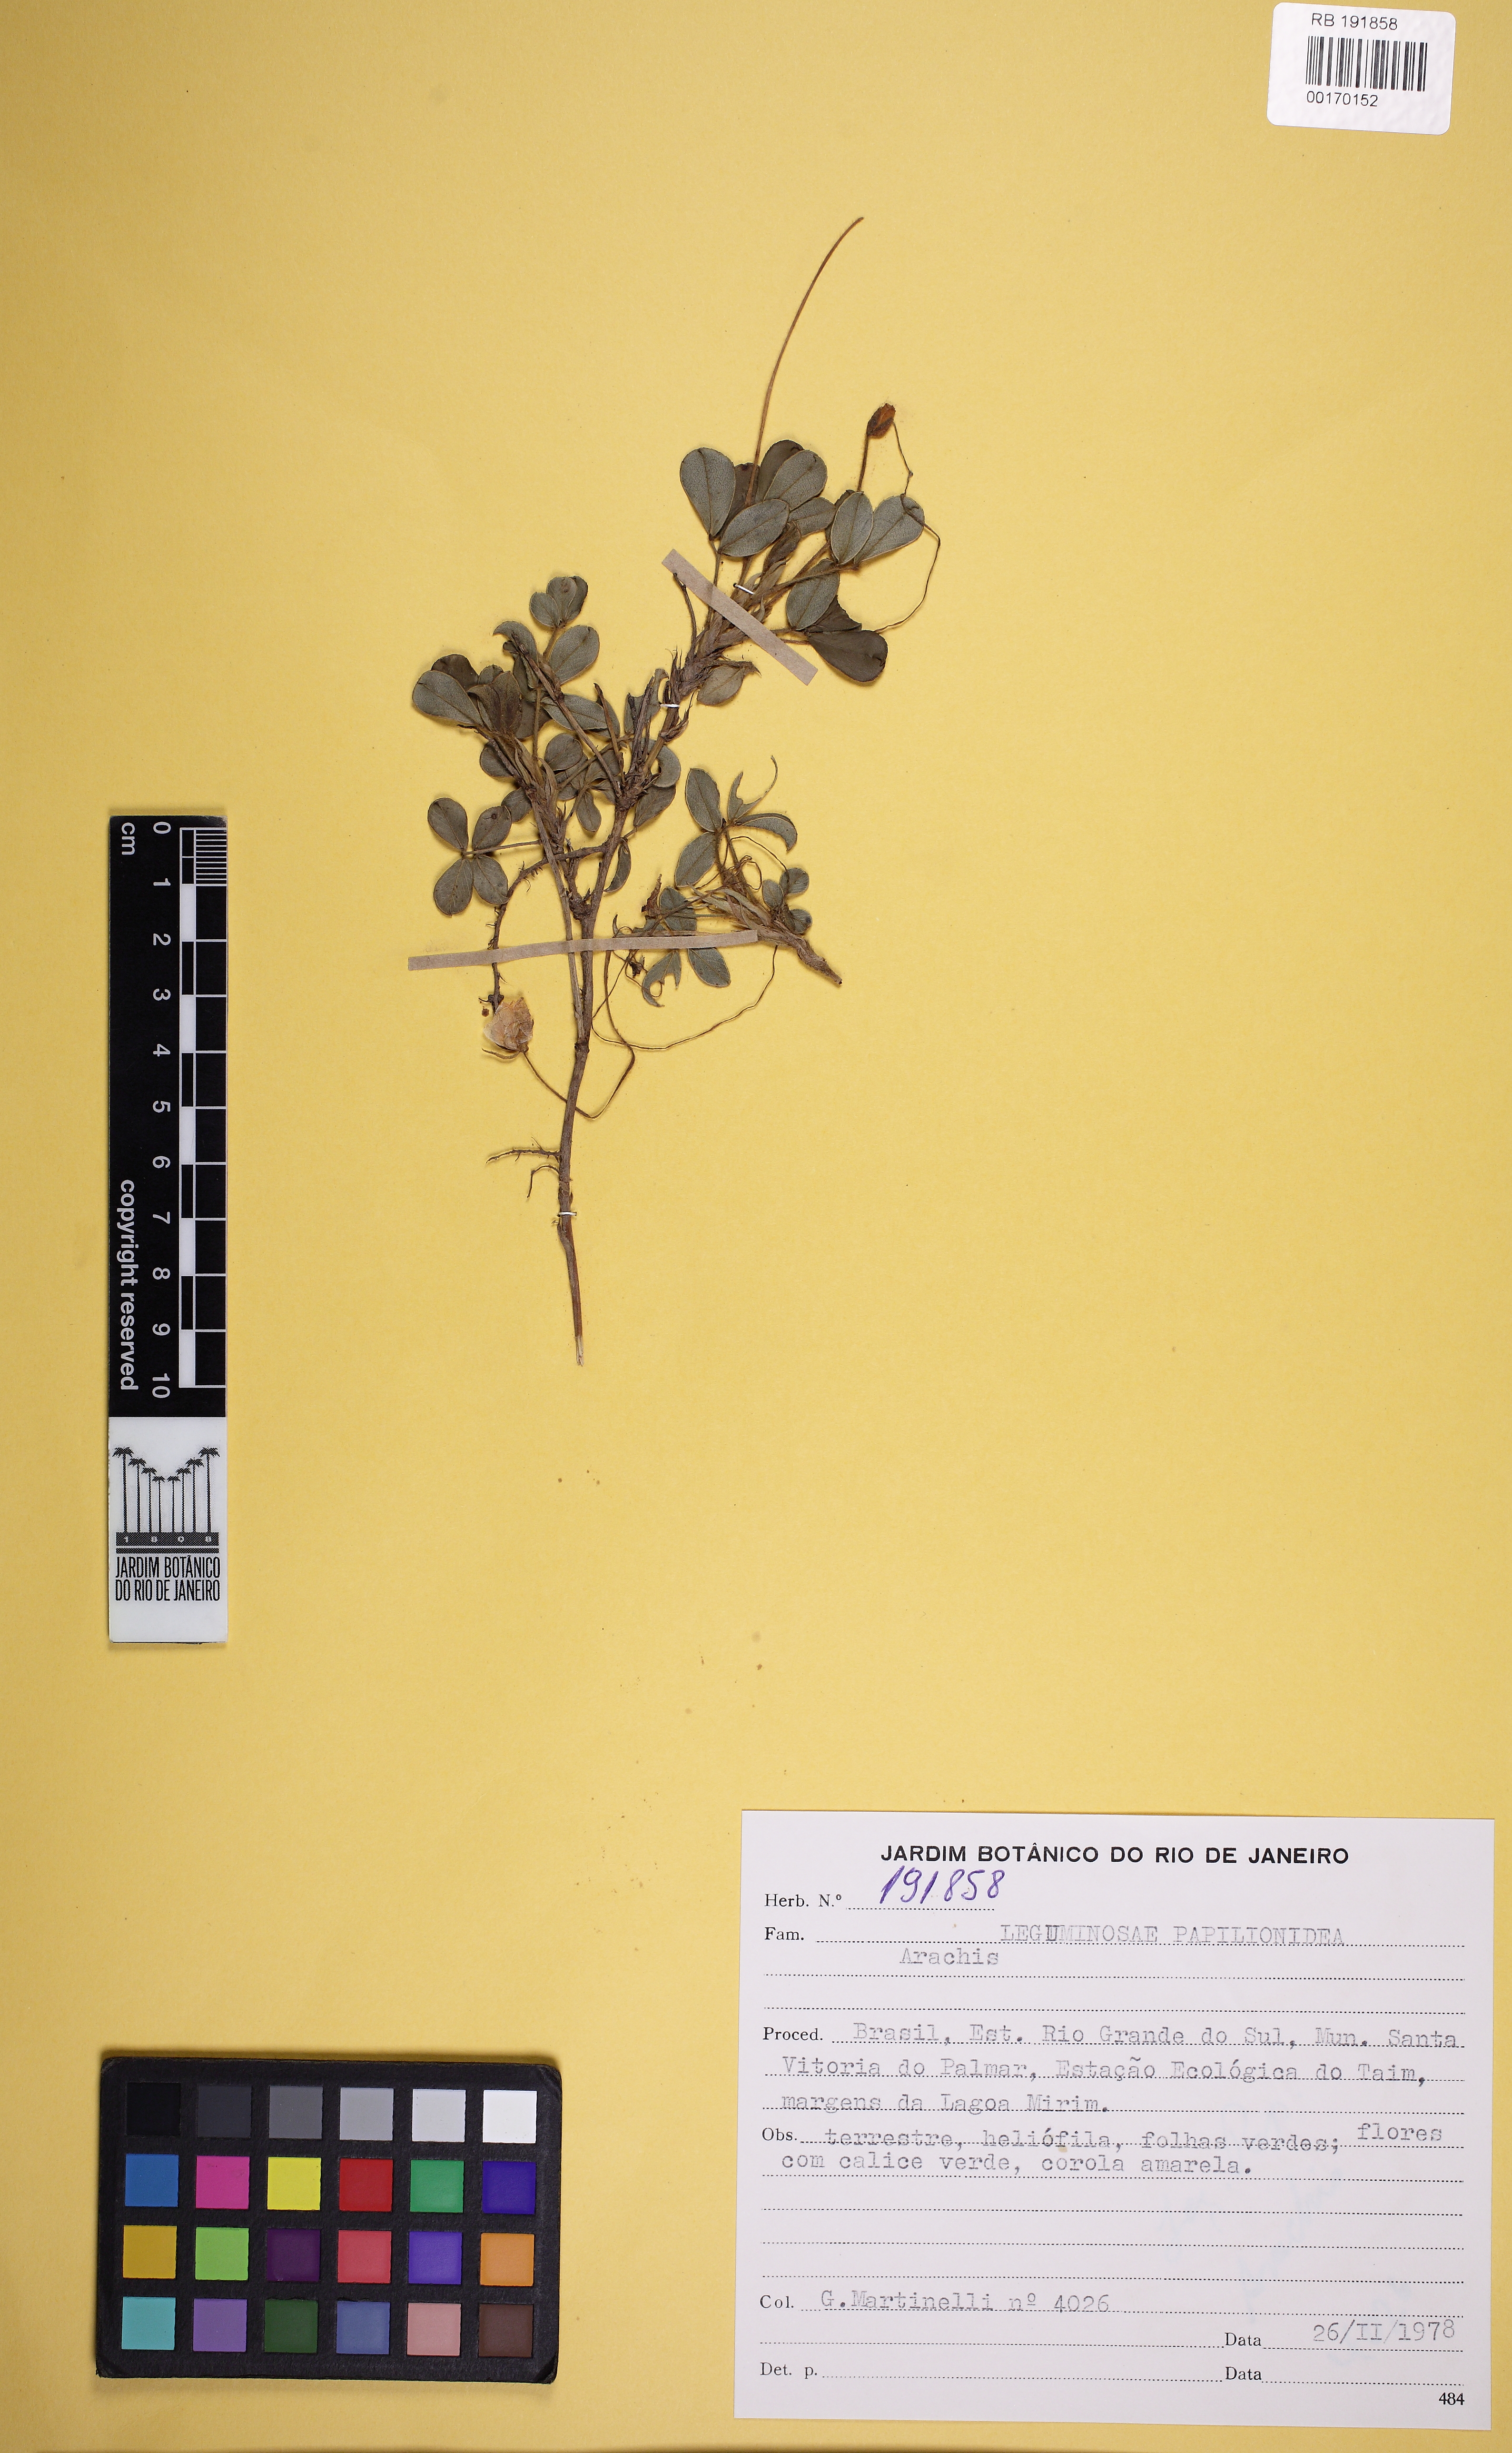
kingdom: Plantae
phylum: Tracheophyta
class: Magnoliopsida
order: Fabales
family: Fabaceae
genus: Arachis
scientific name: Arachis
